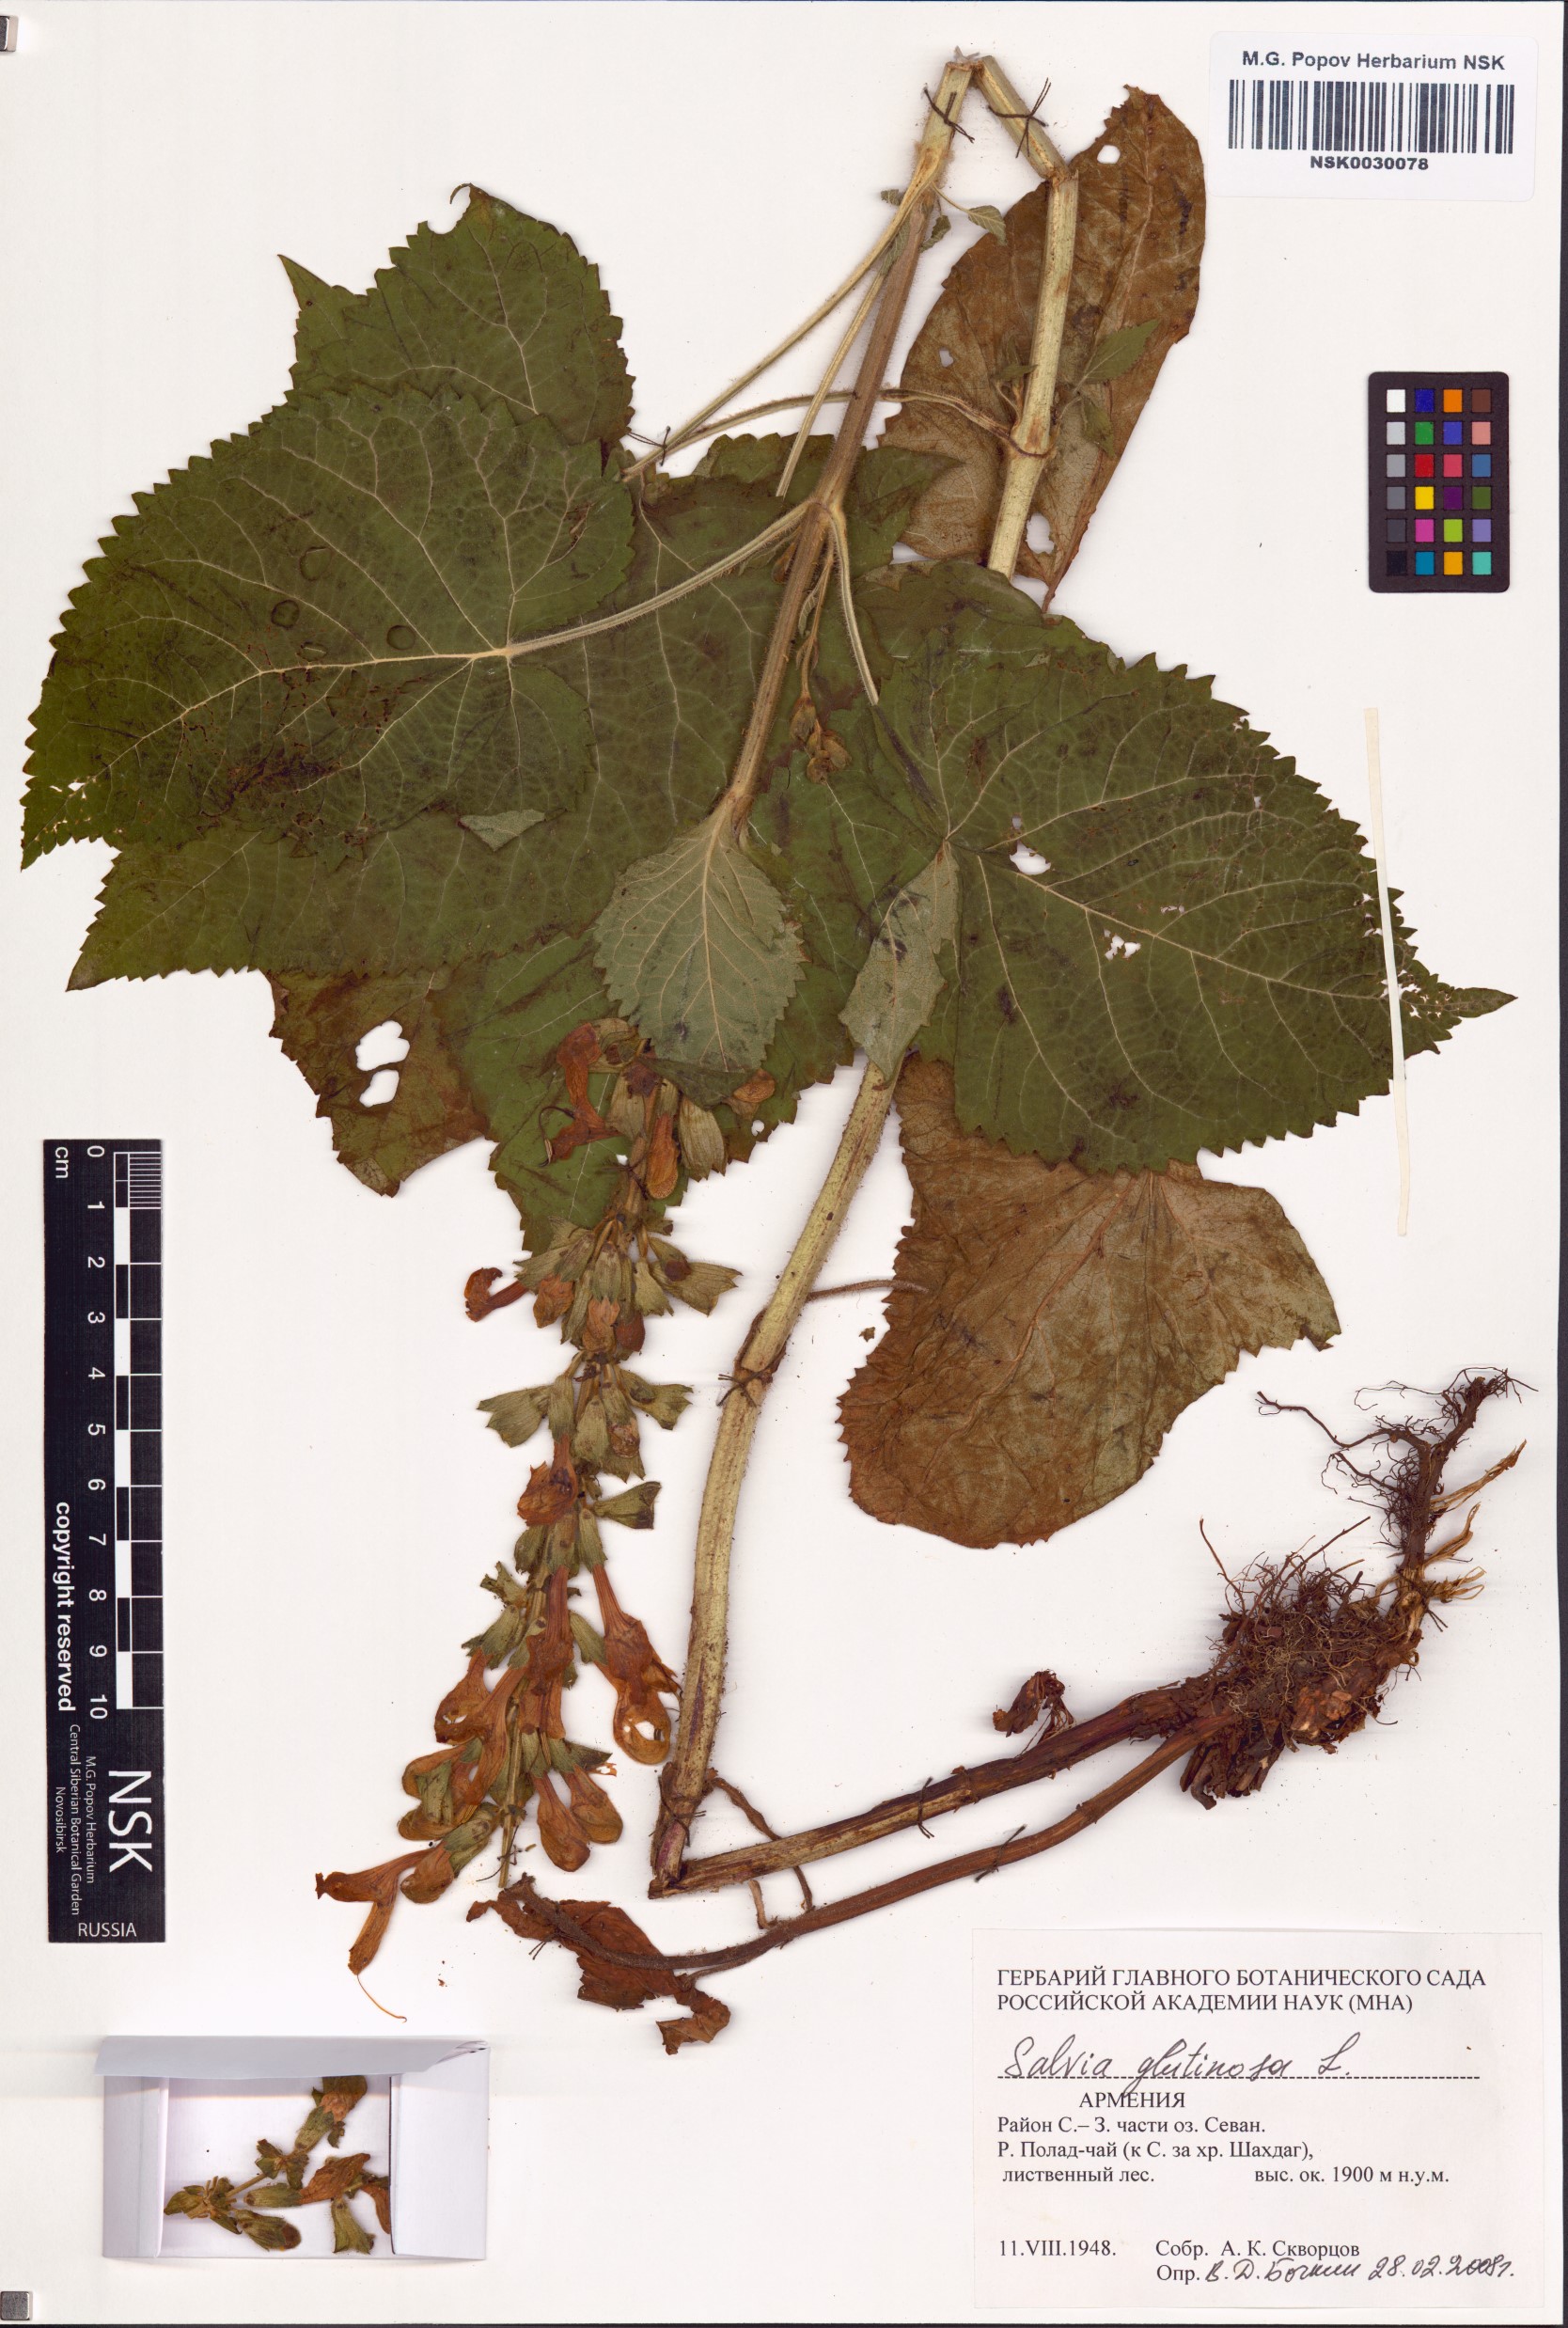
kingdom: Plantae
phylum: Tracheophyta
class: Magnoliopsida
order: Lamiales
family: Lamiaceae
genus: Salvia
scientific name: Salvia glutinosa
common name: Sticky clary
